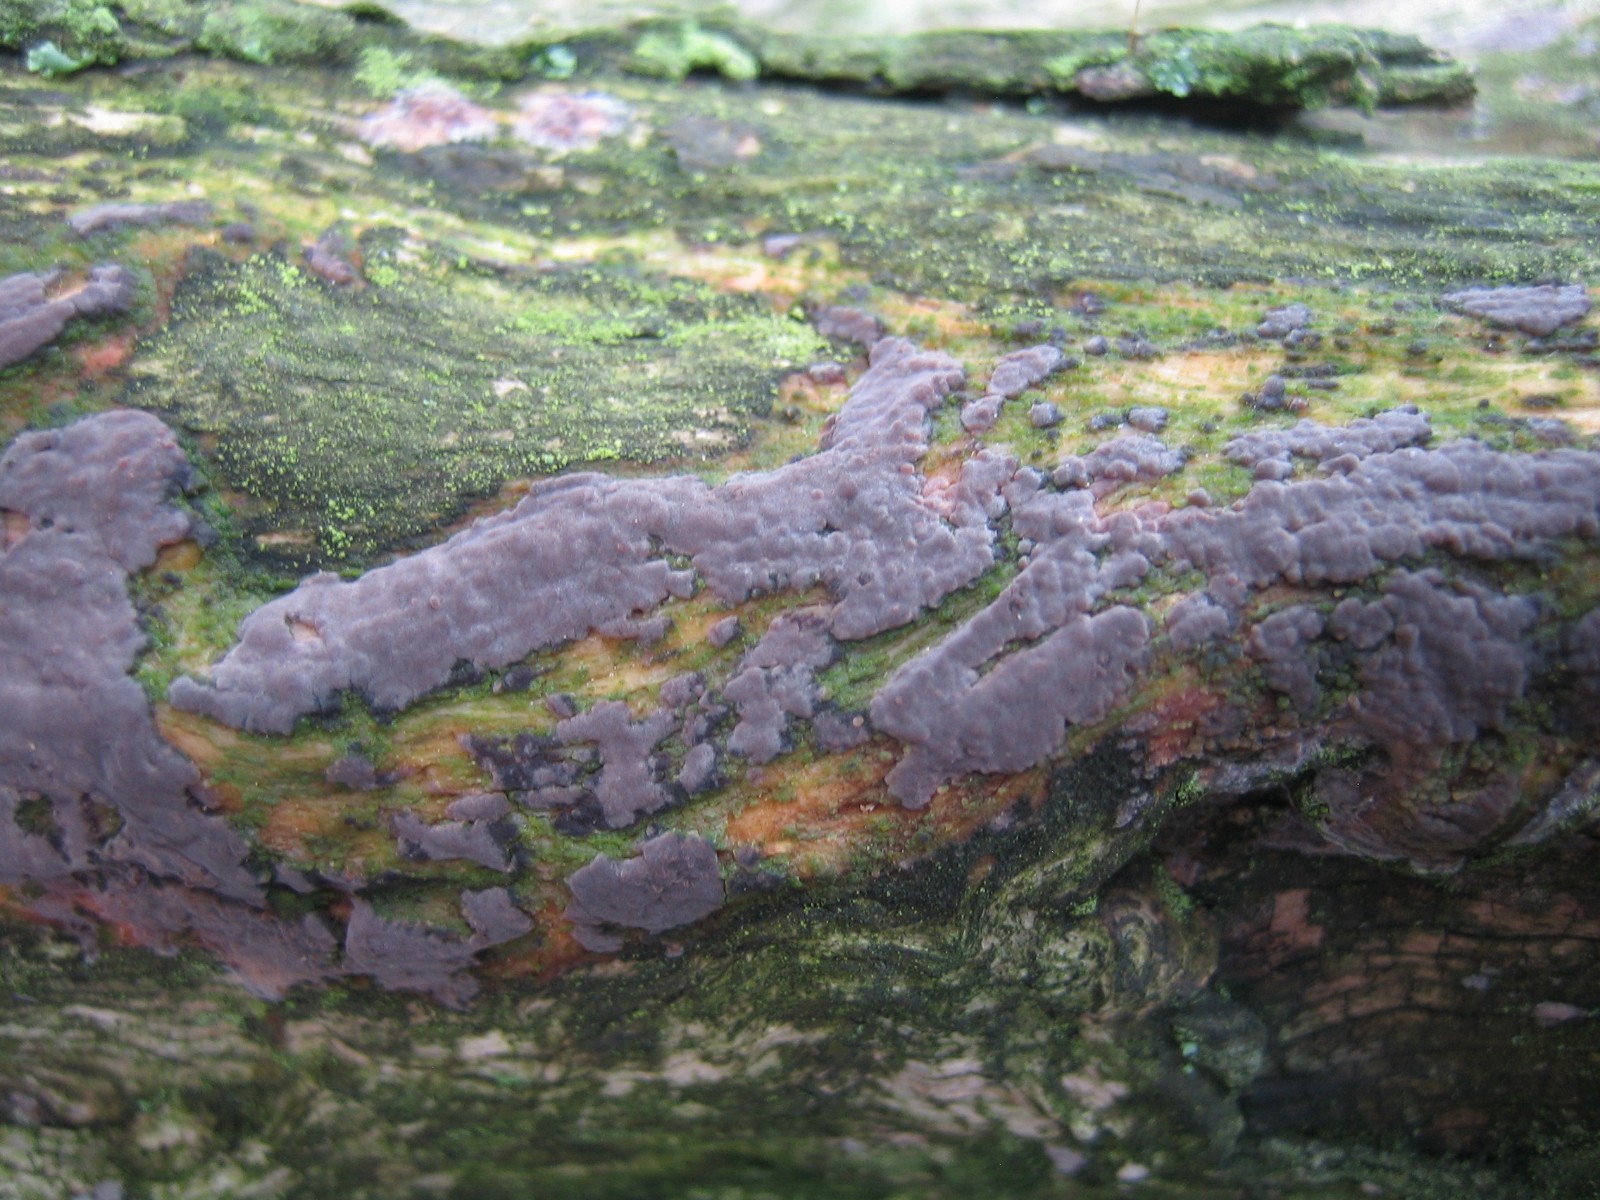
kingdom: Fungi
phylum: Basidiomycota
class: Agaricomycetes
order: Russulales
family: Peniophoraceae
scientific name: Peniophoraceae
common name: voksskindfamilien
